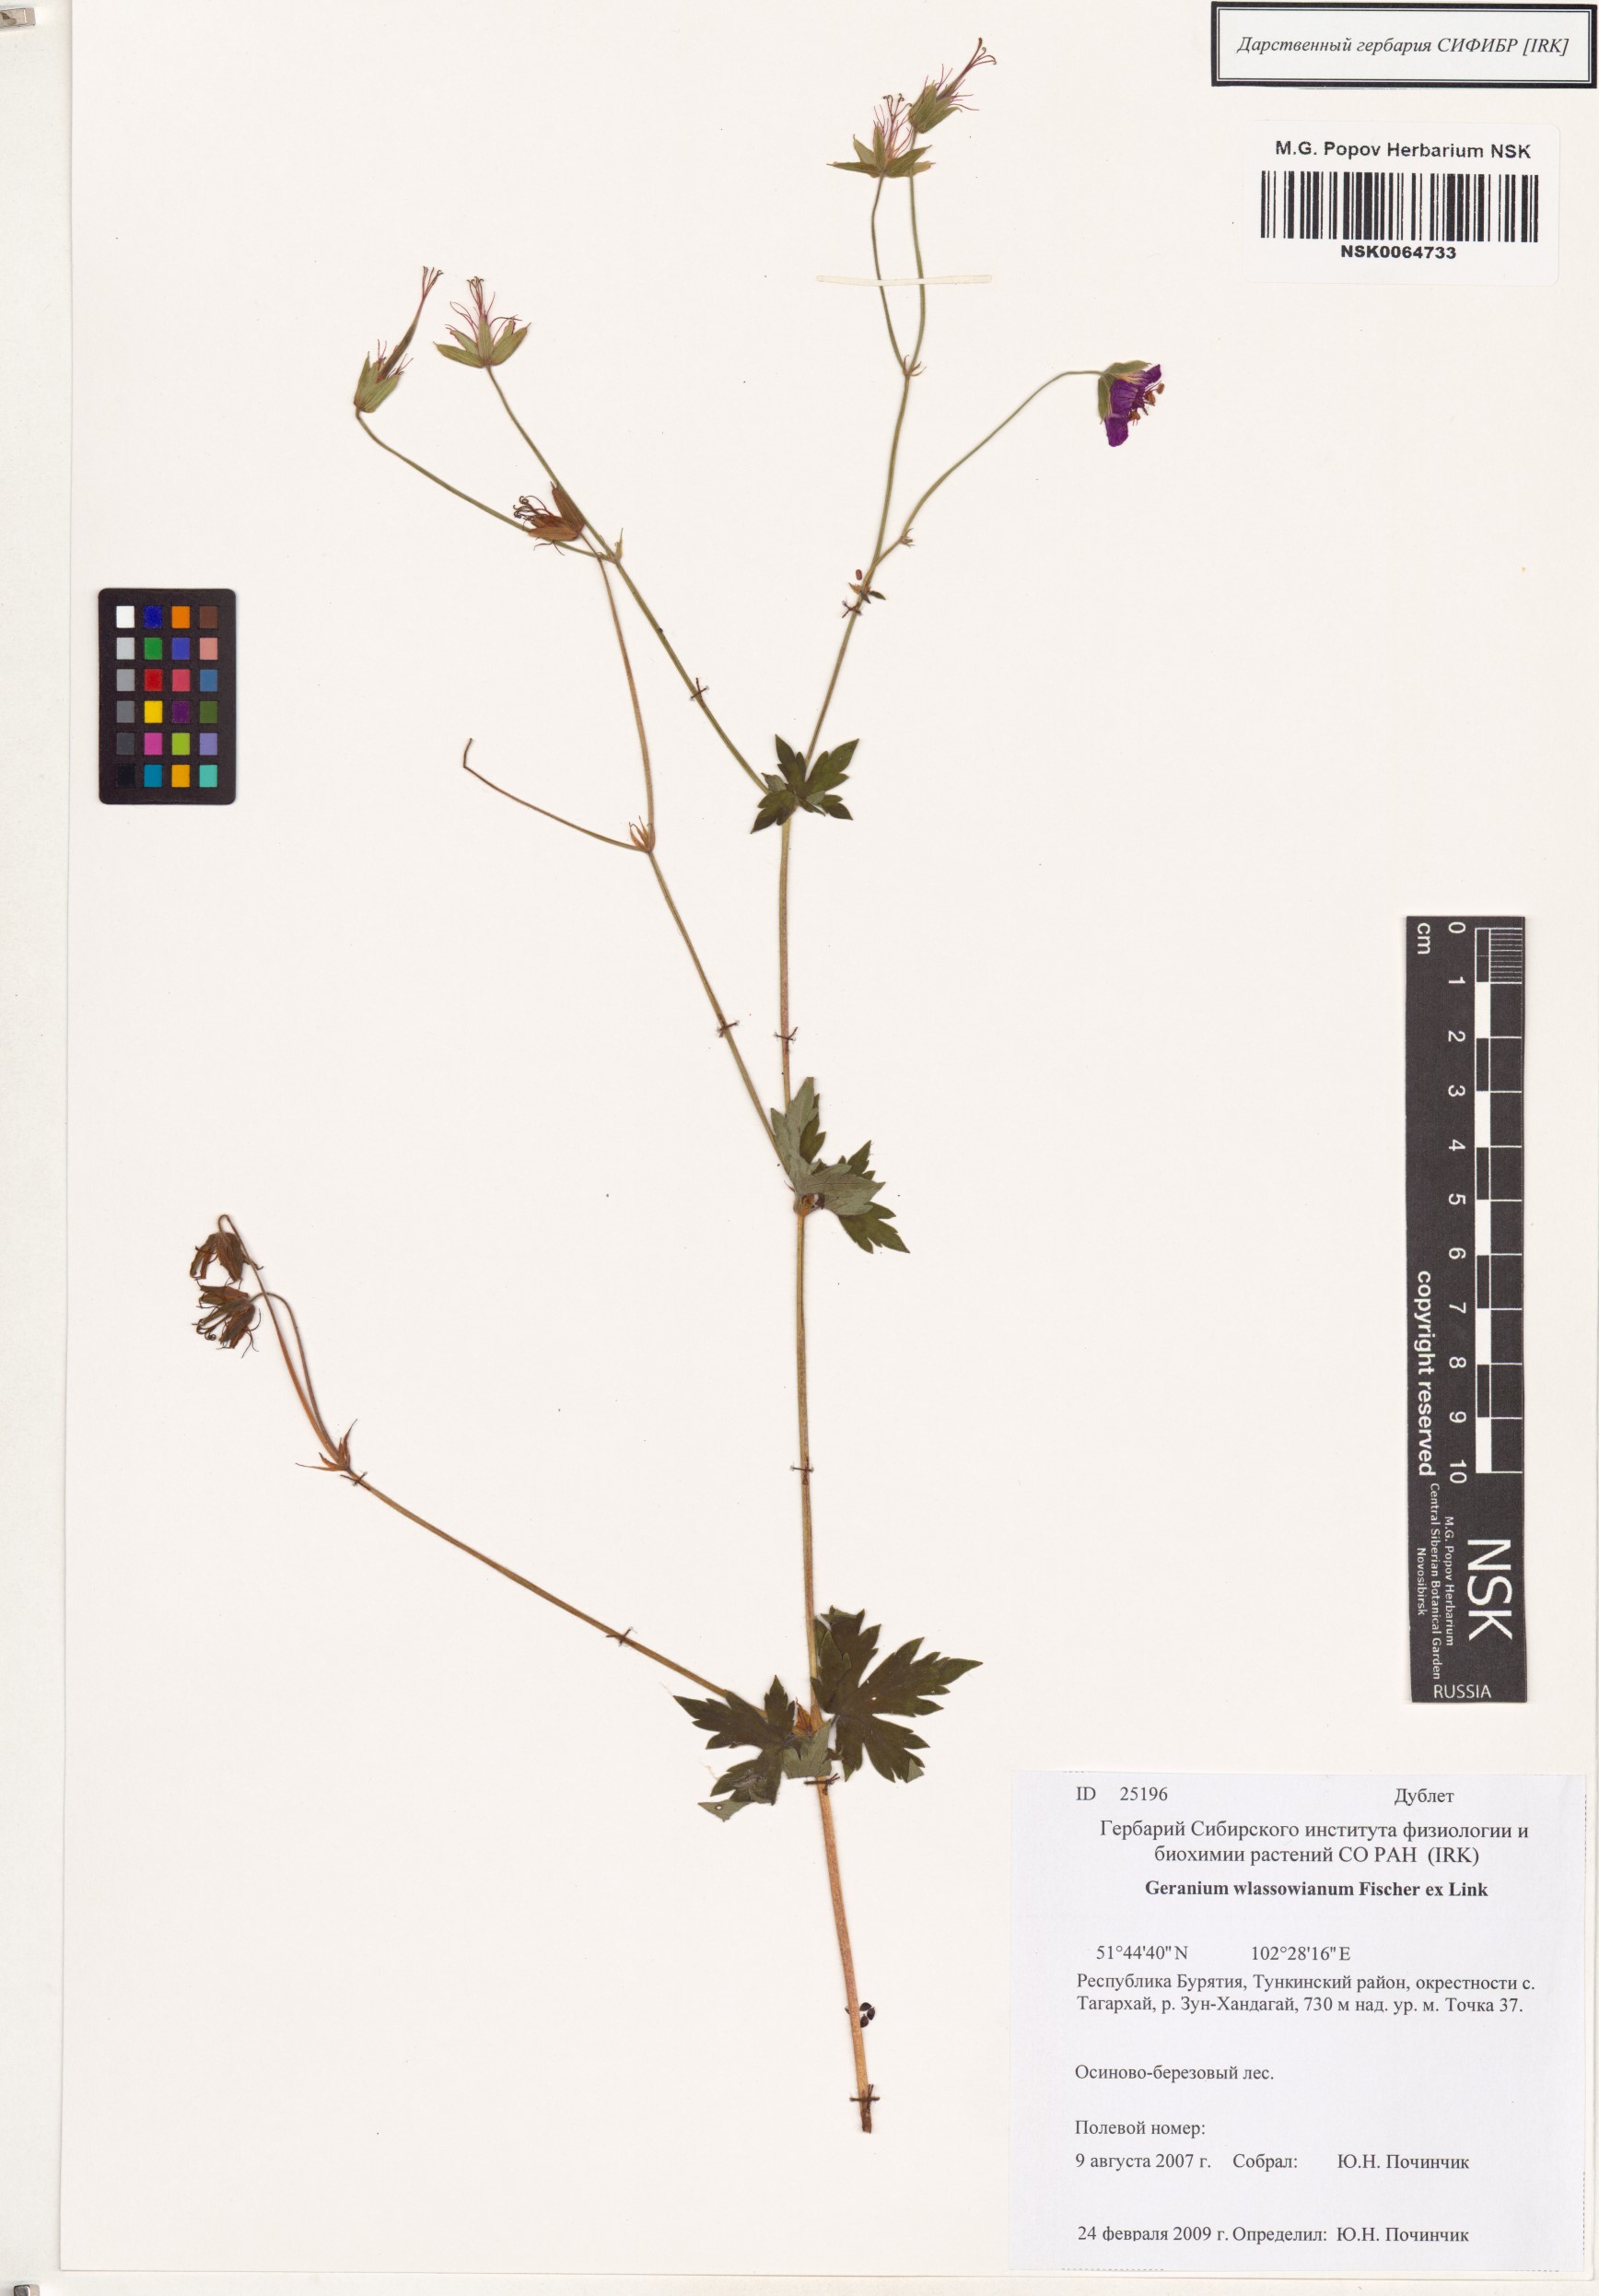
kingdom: Plantae
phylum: Tracheophyta
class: Magnoliopsida
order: Geraniales
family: Geraniaceae
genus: Geranium
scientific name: Geranium wlassovianum
